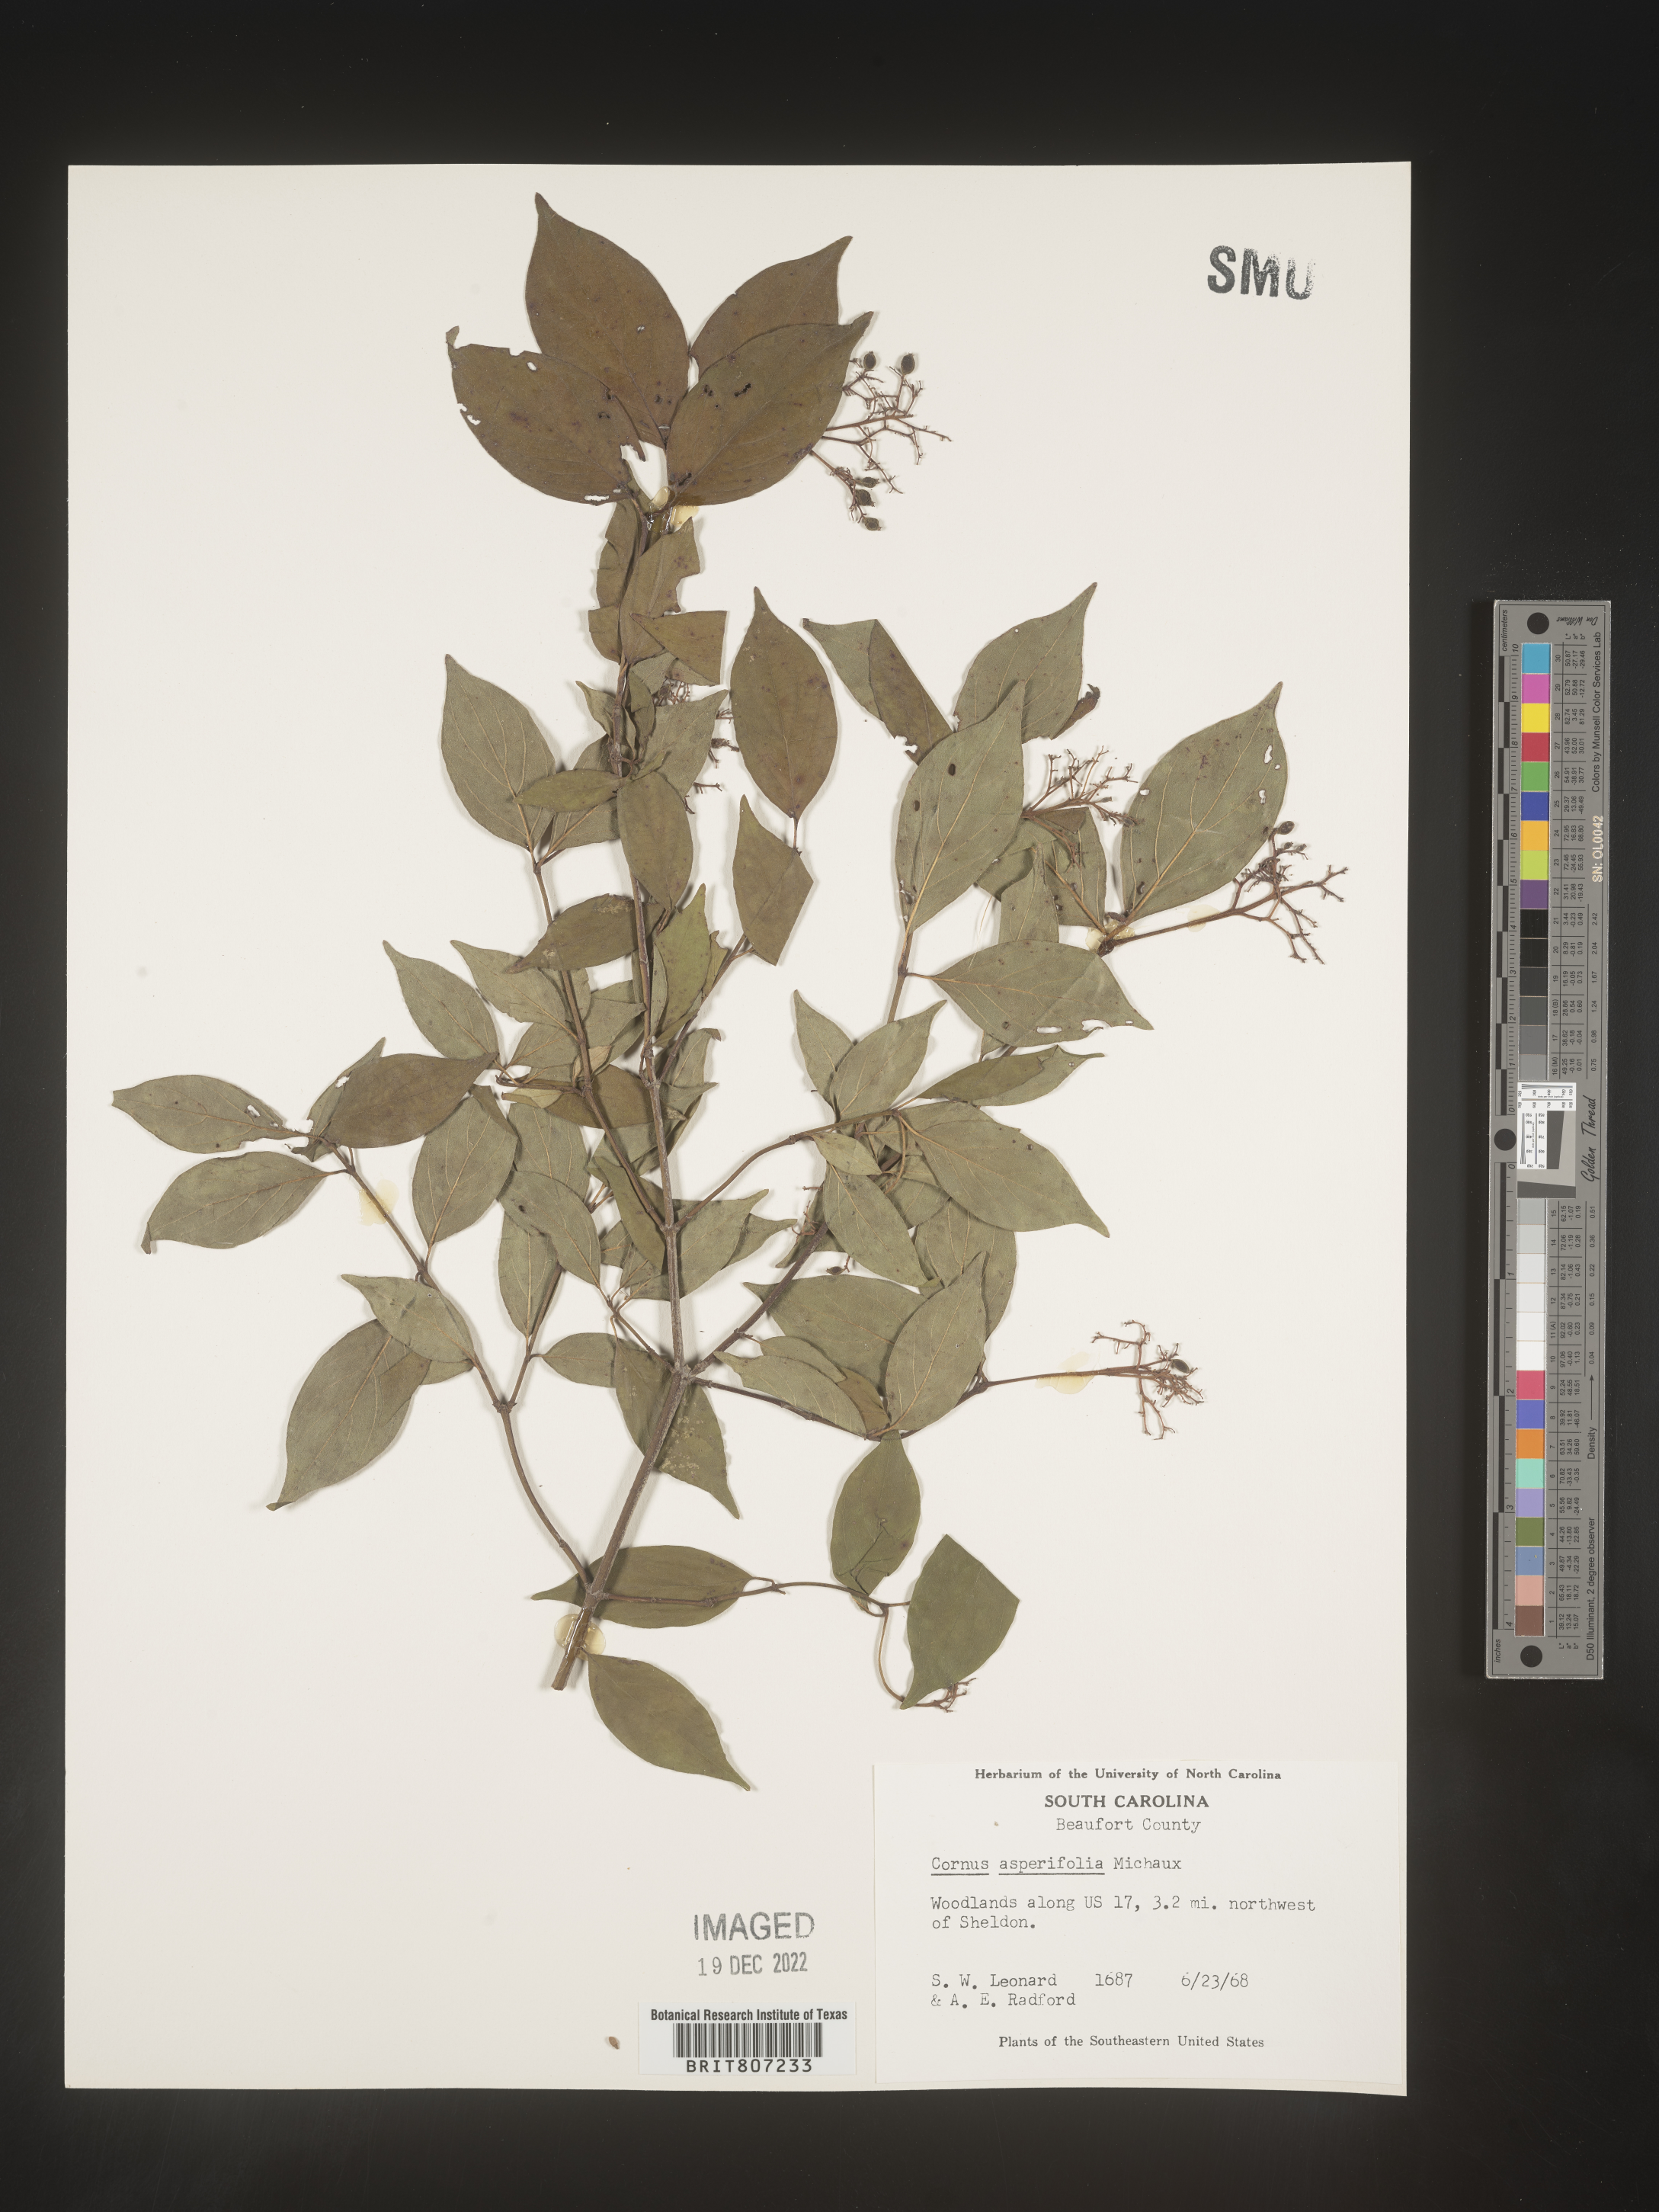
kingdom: Plantae
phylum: Tracheophyta
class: Magnoliopsida
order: Cornales
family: Cornaceae
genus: Cornus
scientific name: Cornus asperifolia
